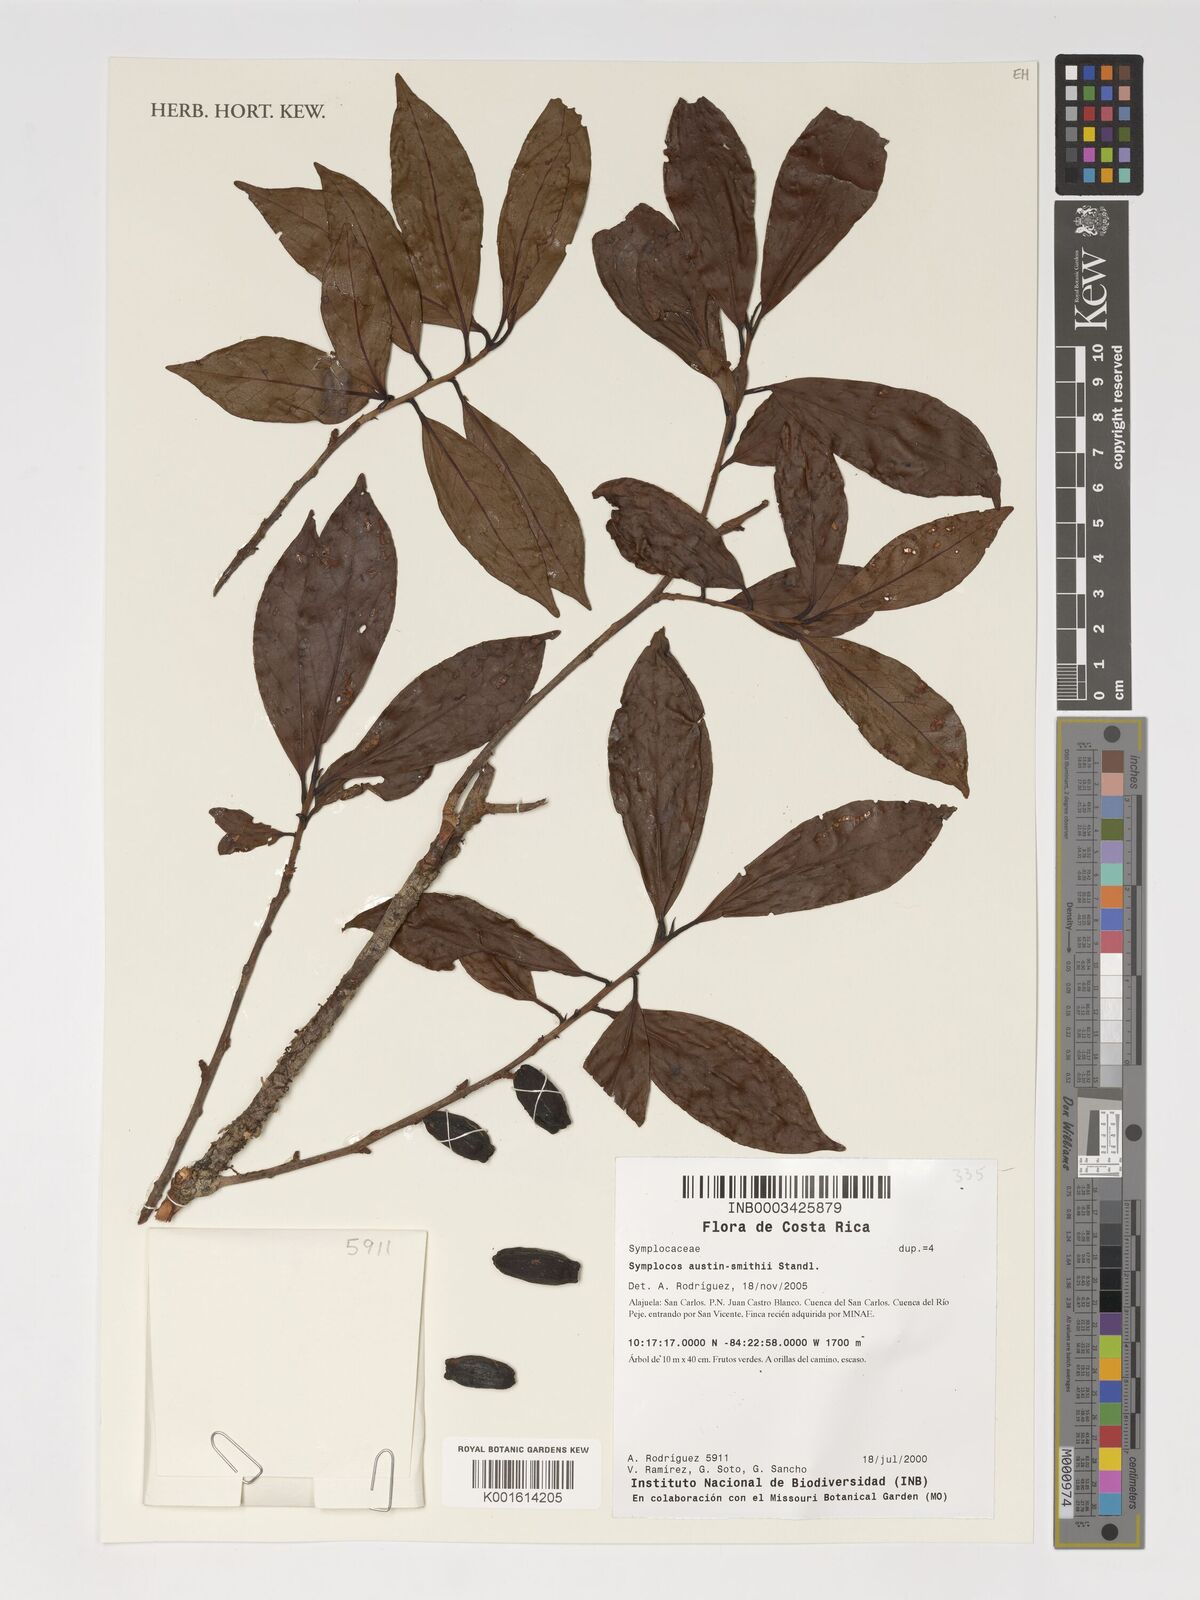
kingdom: Plantae
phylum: Tracheophyta
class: Magnoliopsida
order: Ericales
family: Symplocaceae
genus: Symplocos
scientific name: Symplocos austin-smithii
